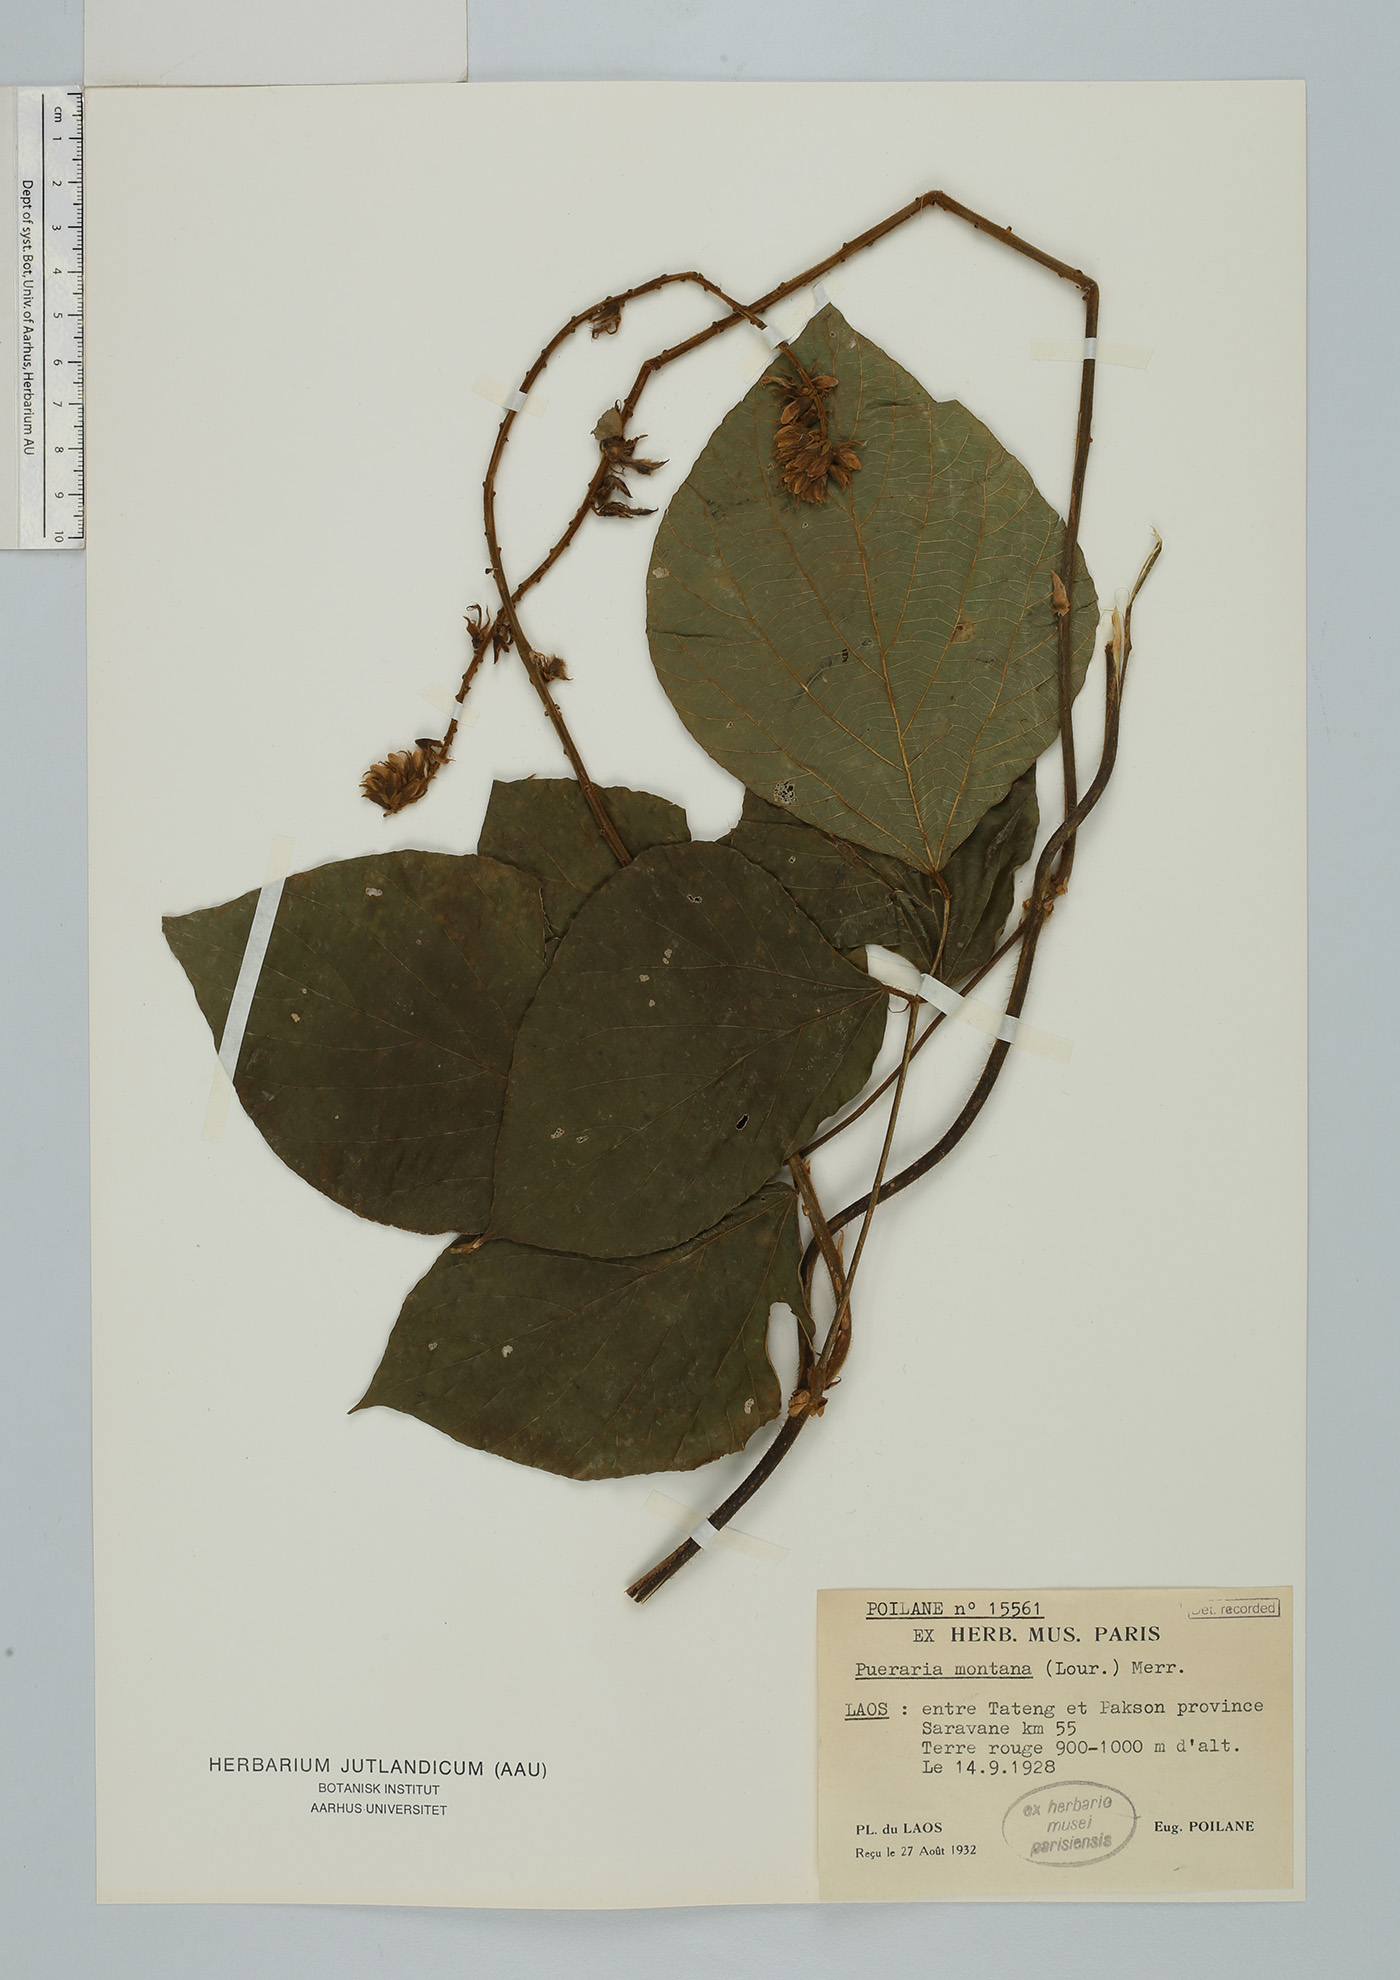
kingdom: Plantae
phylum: Tracheophyta
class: Magnoliopsida
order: Fabales
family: Fabaceae
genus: Pueraria
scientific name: Pueraria montana
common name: Kudzu
